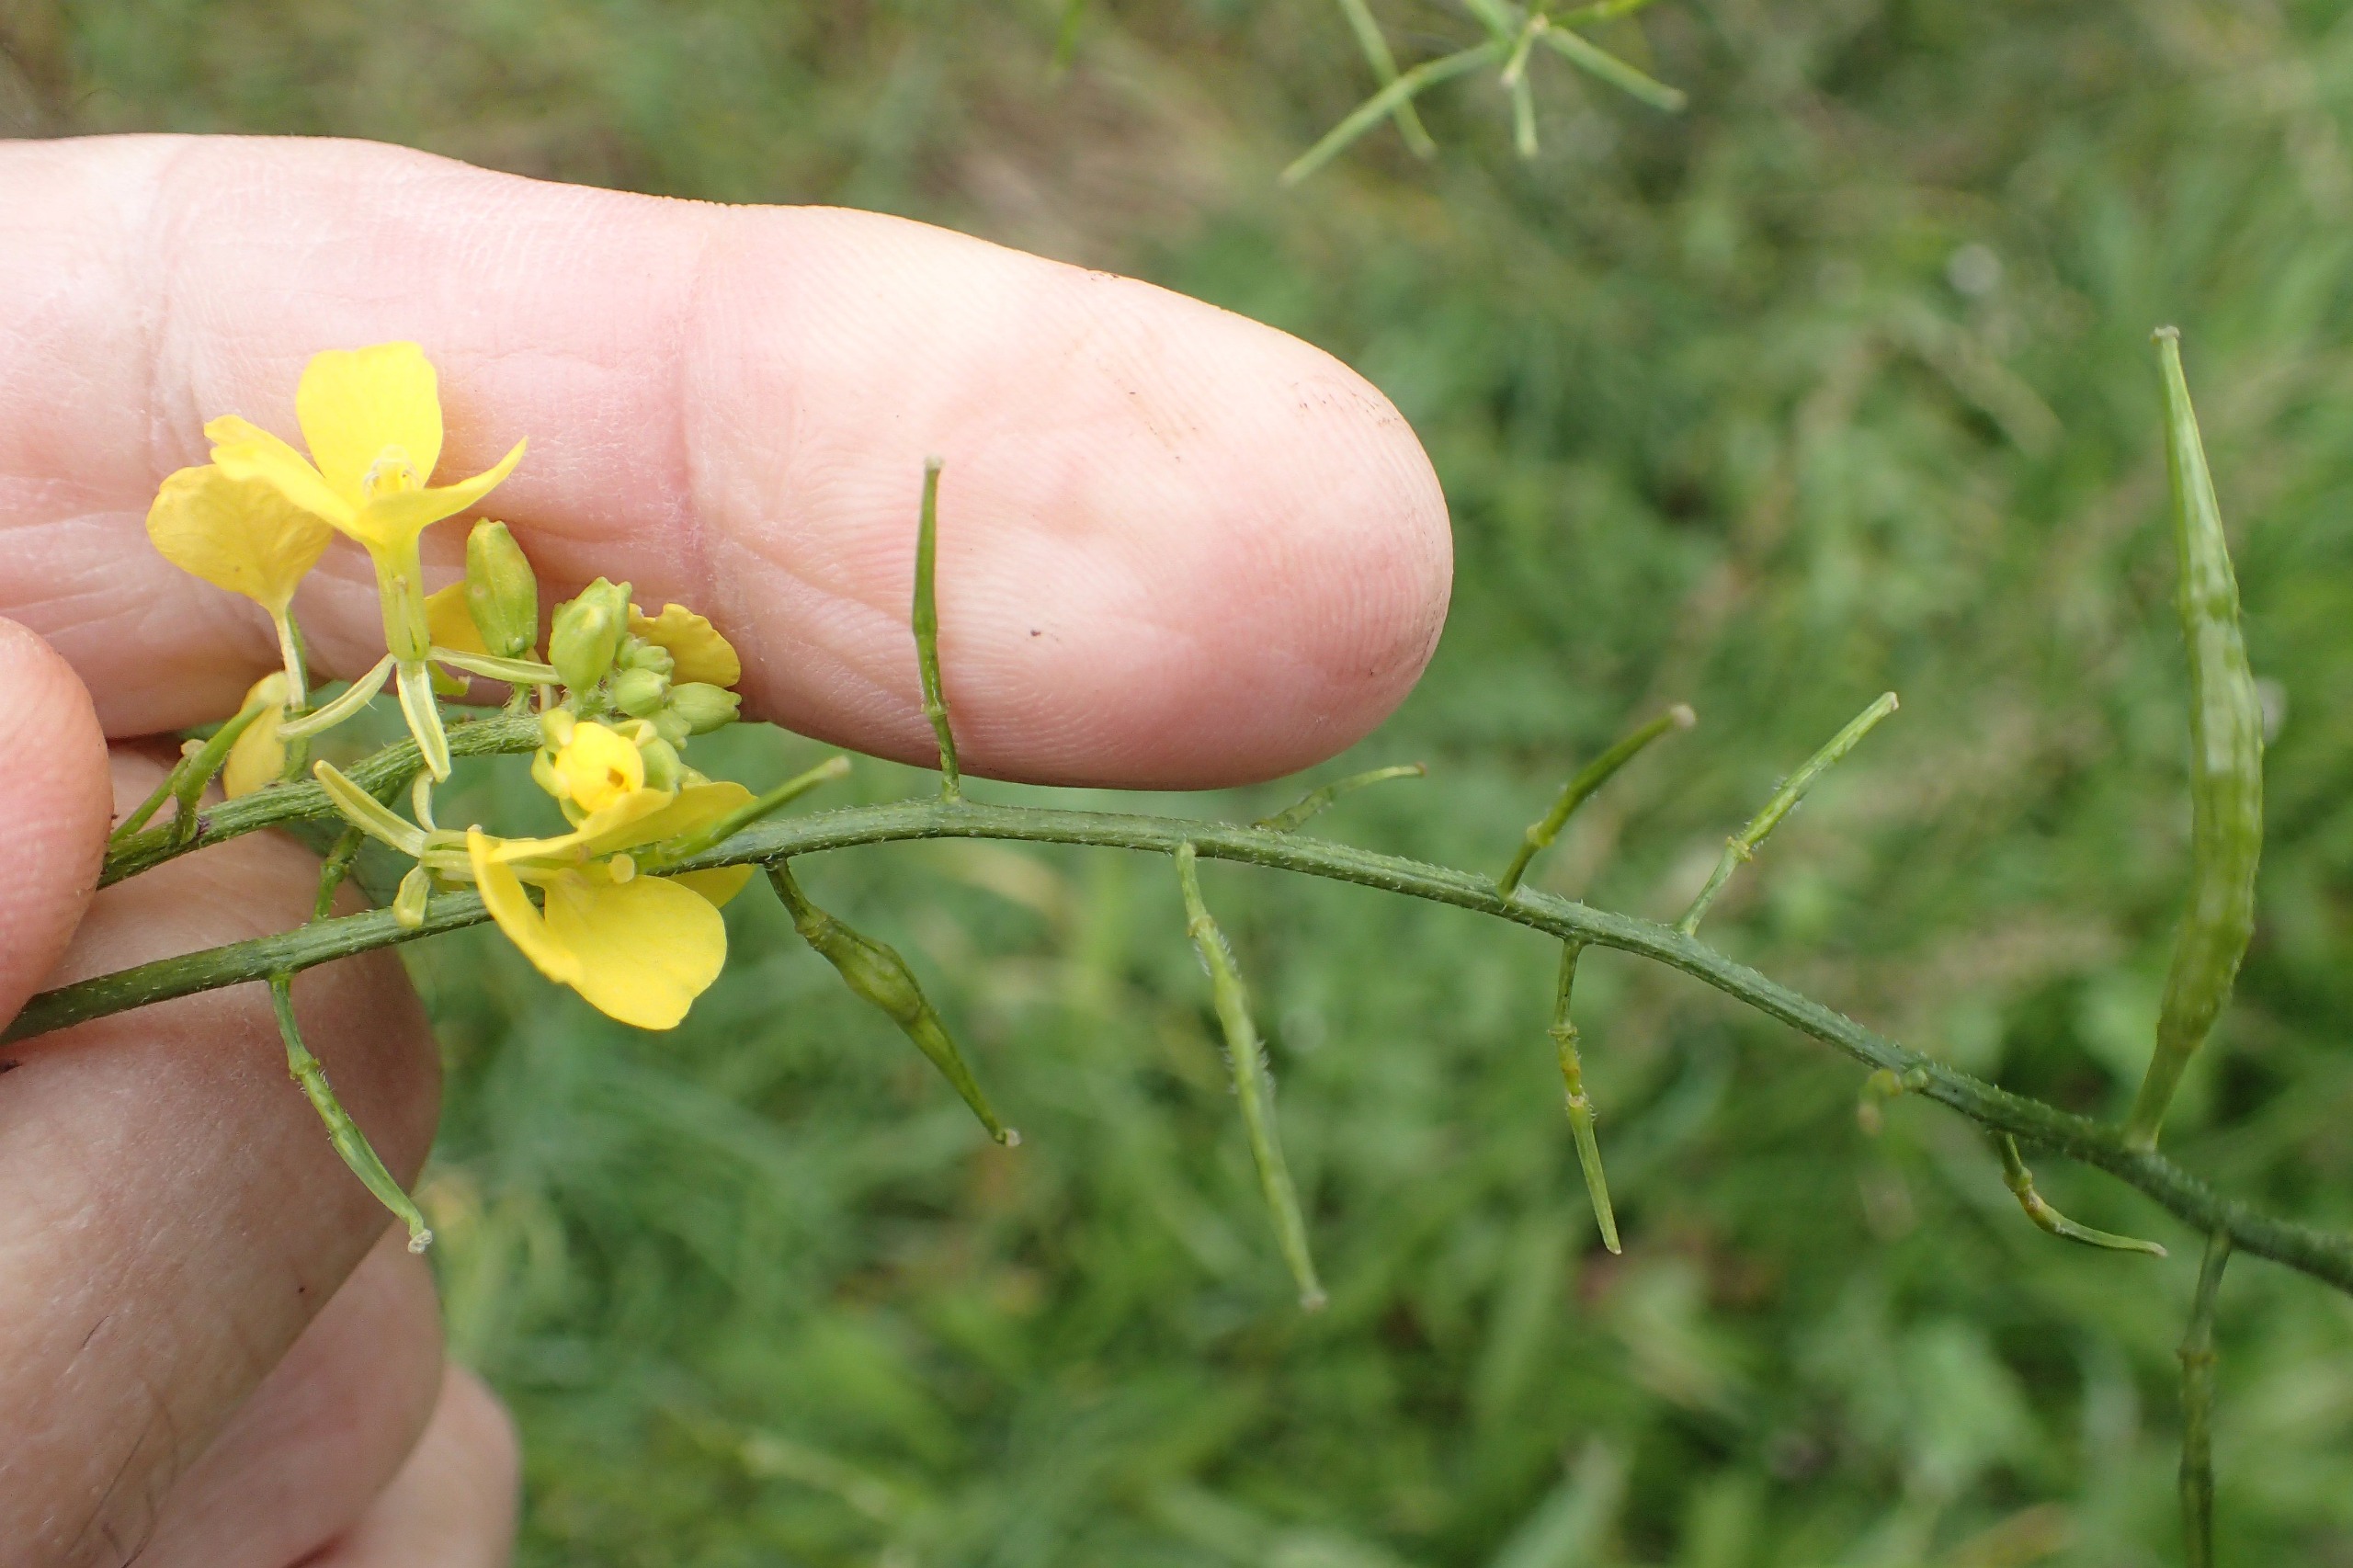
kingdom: Plantae
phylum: Tracheophyta
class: Magnoliopsida
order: Brassicales
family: Brassicaceae
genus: Sinapis
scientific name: Sinapis arvensis
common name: Ager-sennep
